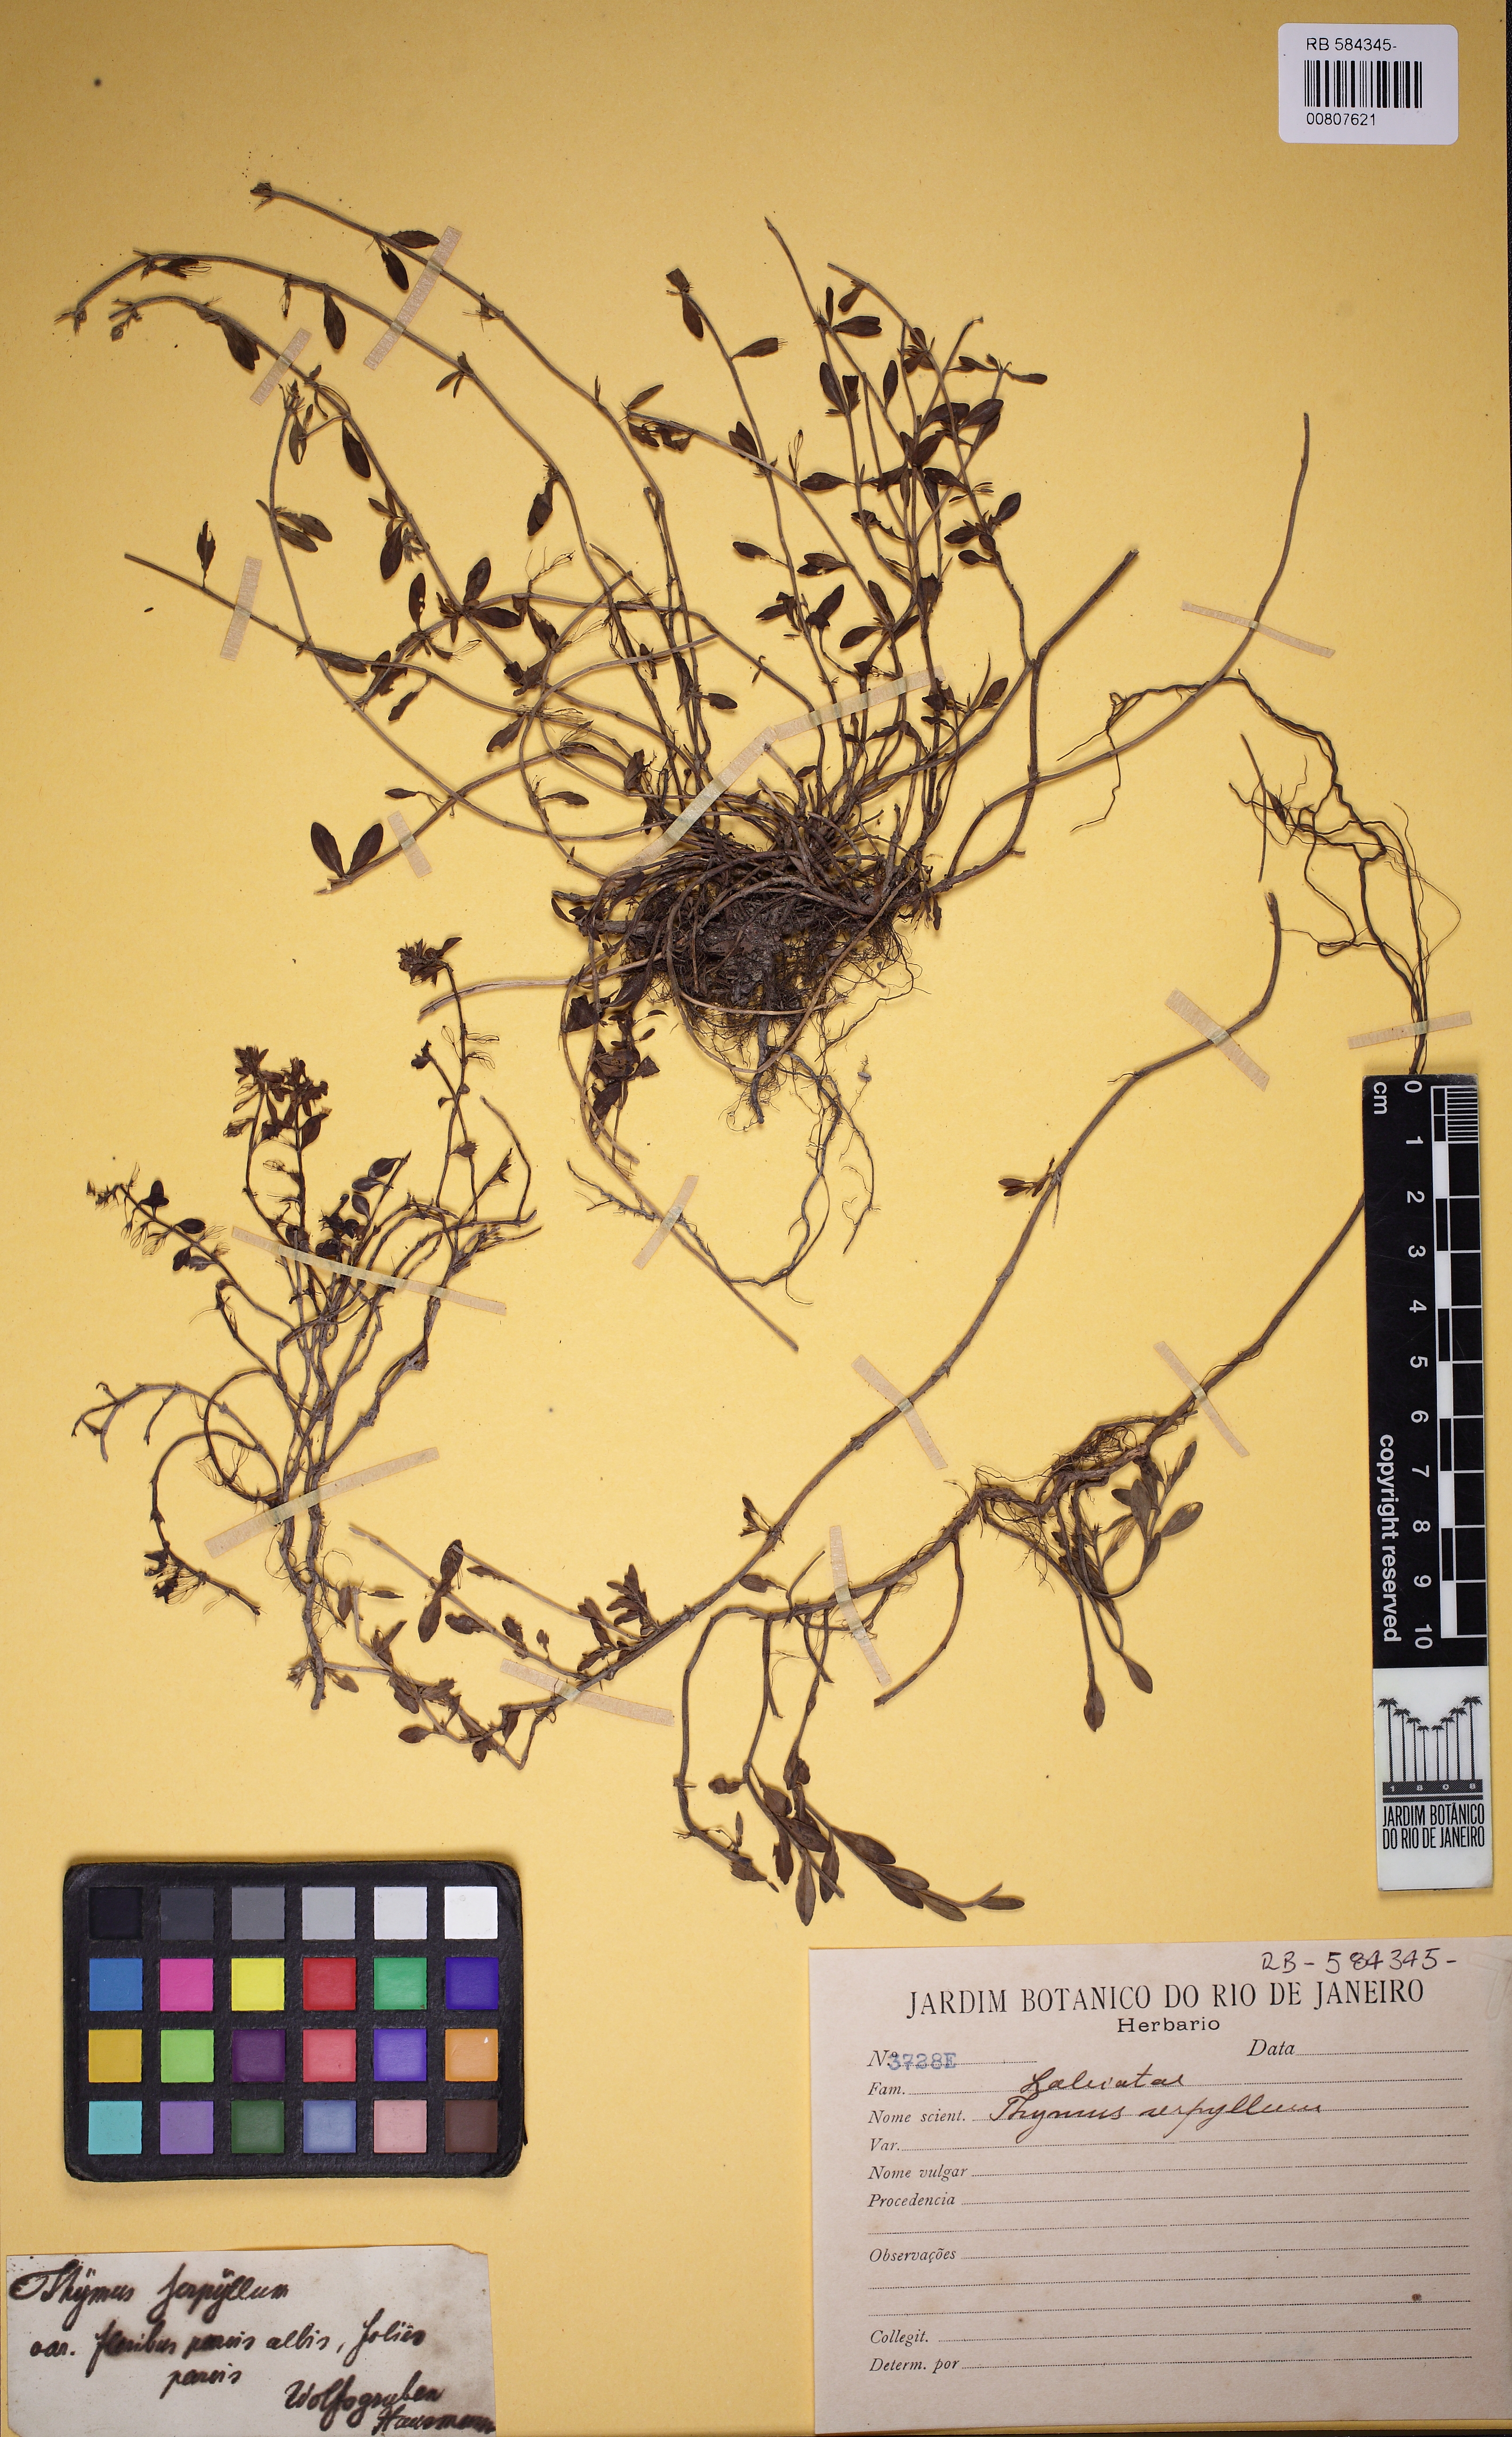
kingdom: Plantae
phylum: Tracheophyta
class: Magnoliopsida
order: Lamiales
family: Lamiaceae
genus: Thymus
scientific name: Thymus serpyllum
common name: Breckland thyme
